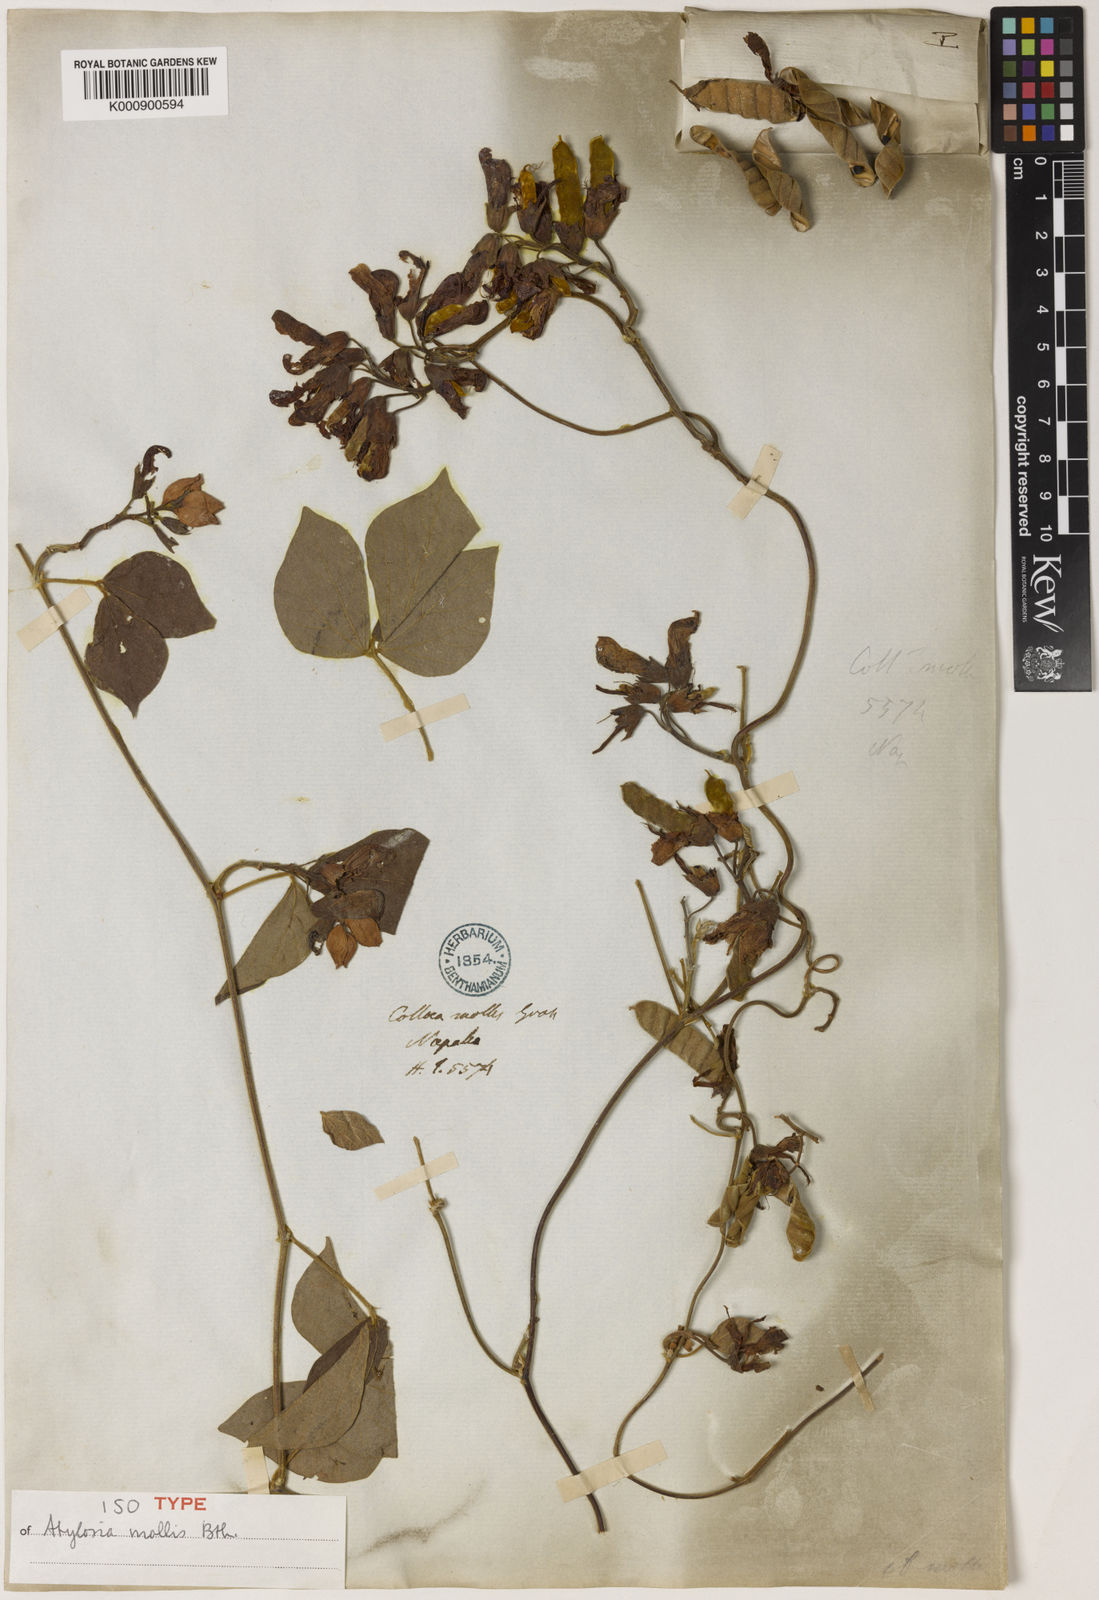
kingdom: Plantae
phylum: Tracheophyta
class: Magnoliopsida
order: Fabales
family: Fabaceae
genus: Cajanus
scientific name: Cajanus mollis
